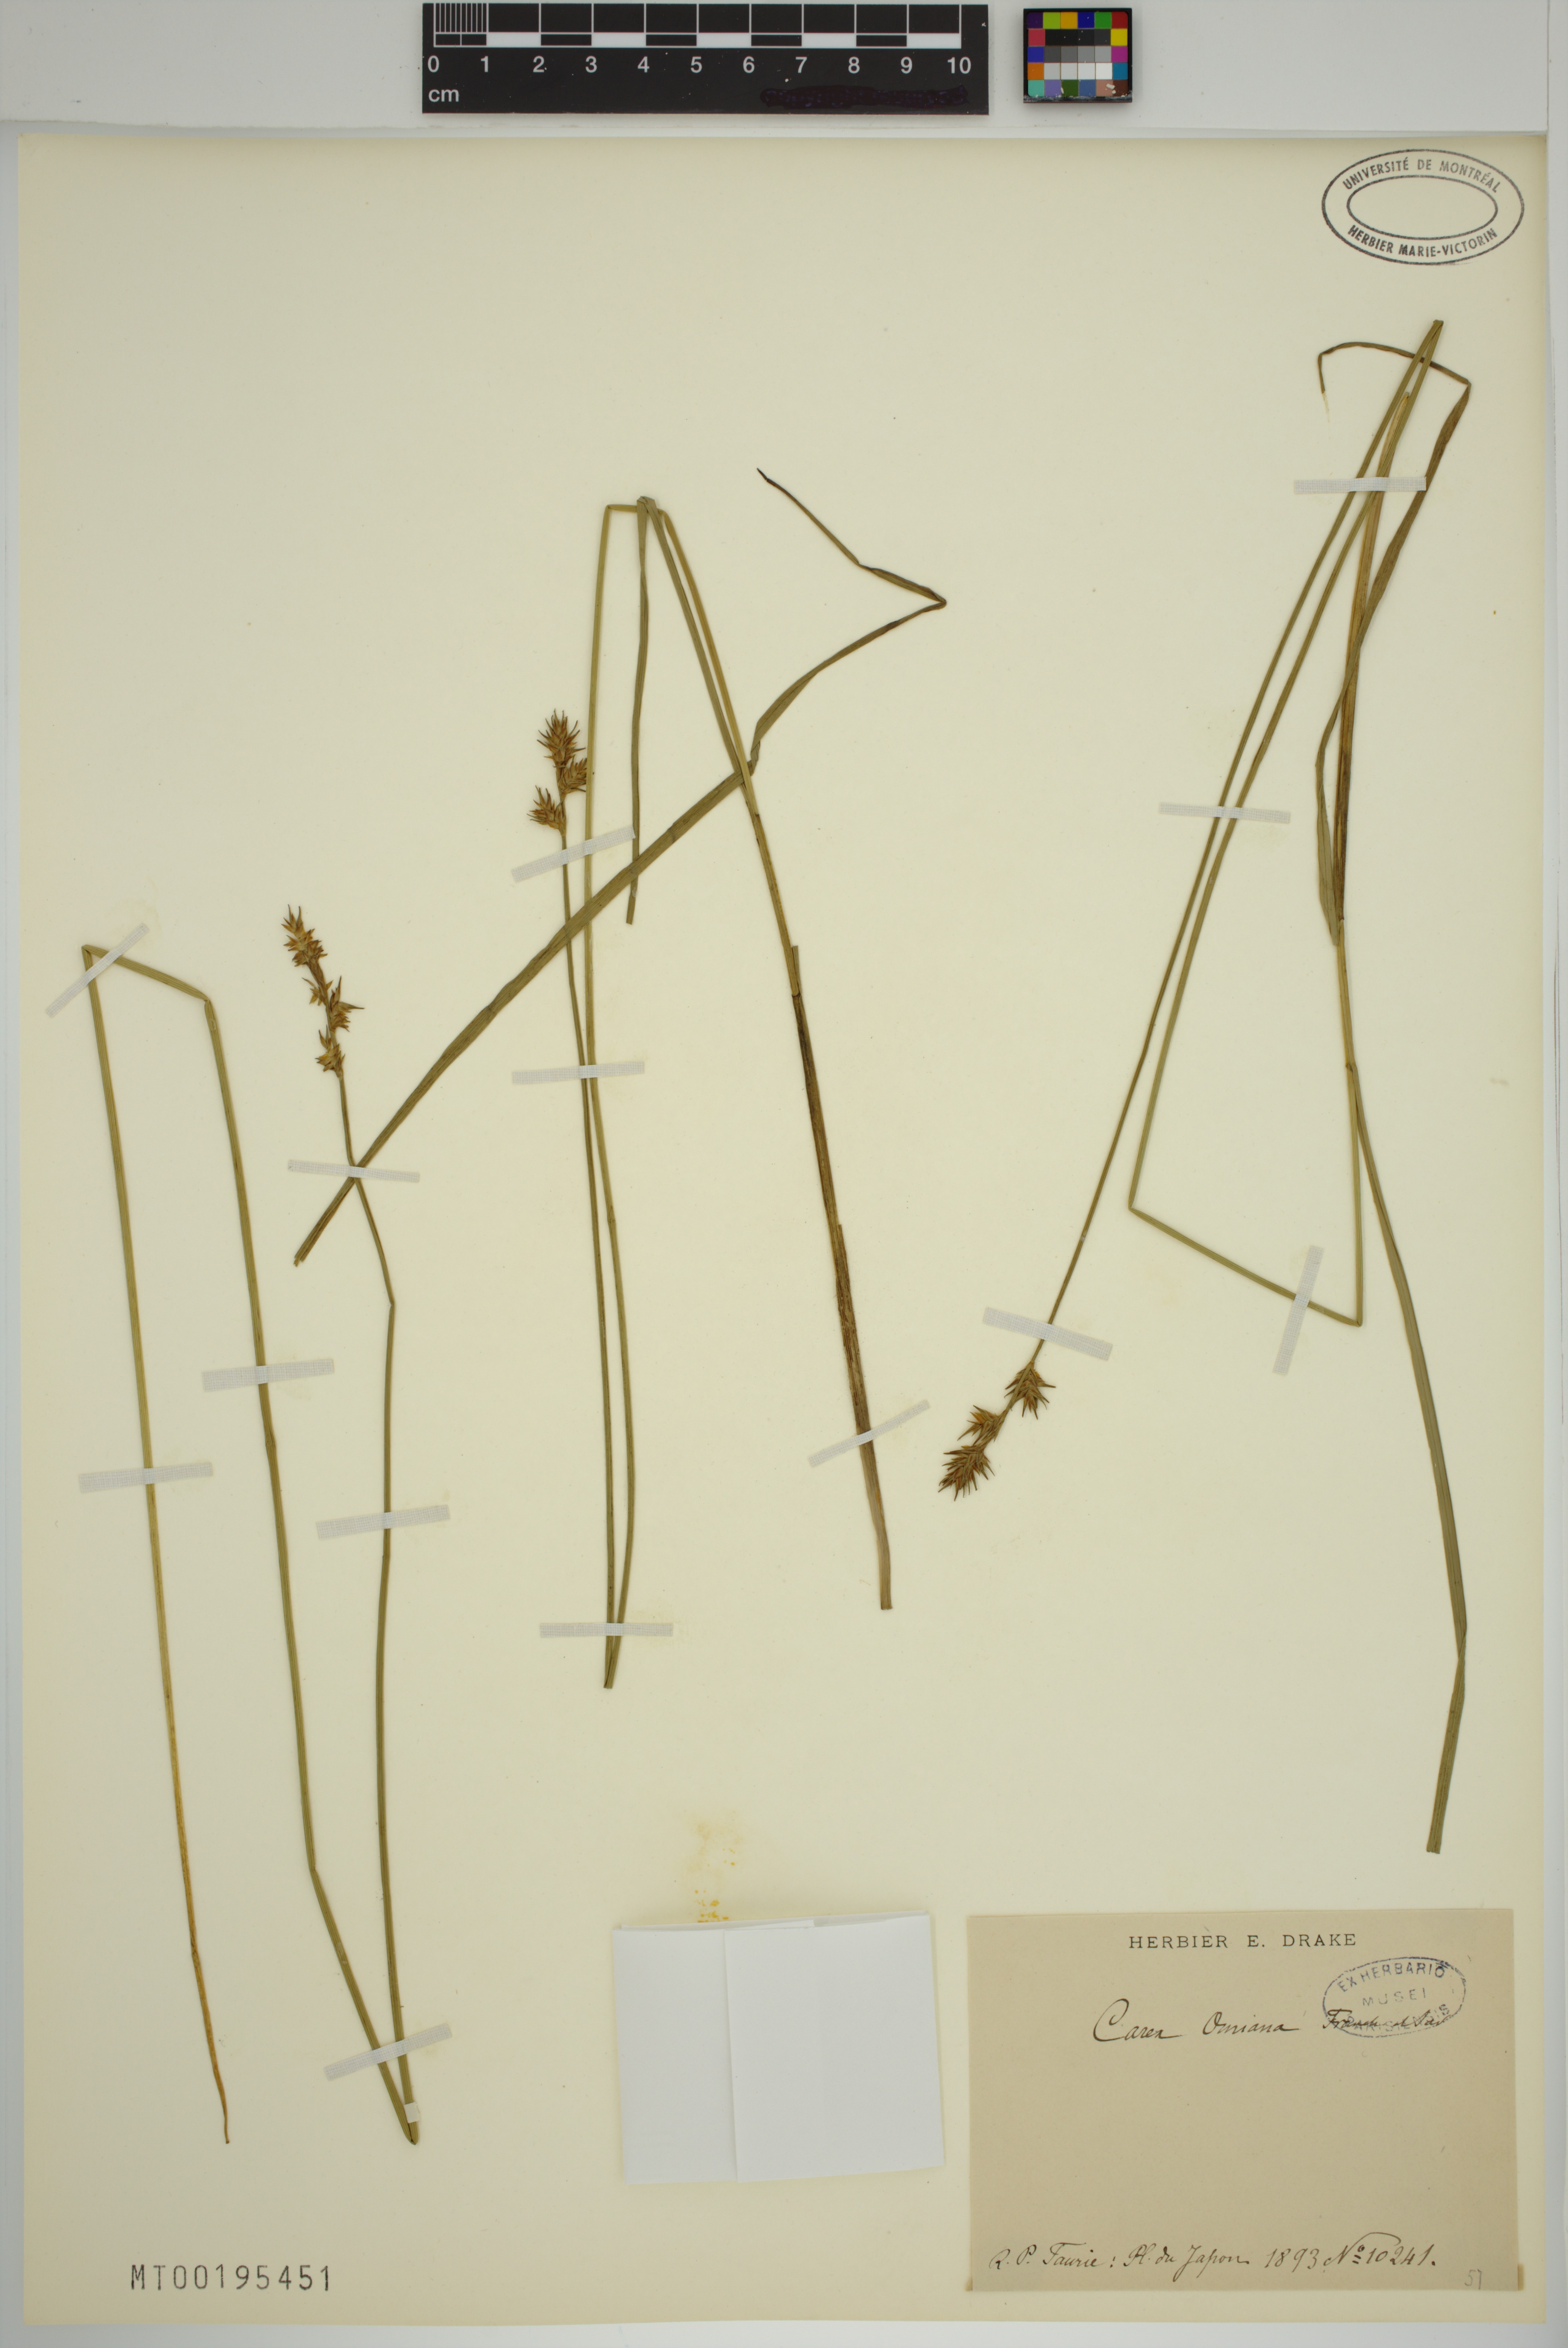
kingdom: Plantae
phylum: Tracheophyta
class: Liliopsida
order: Poales
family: Cyperaceae
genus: Carex
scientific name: Carex omiana
